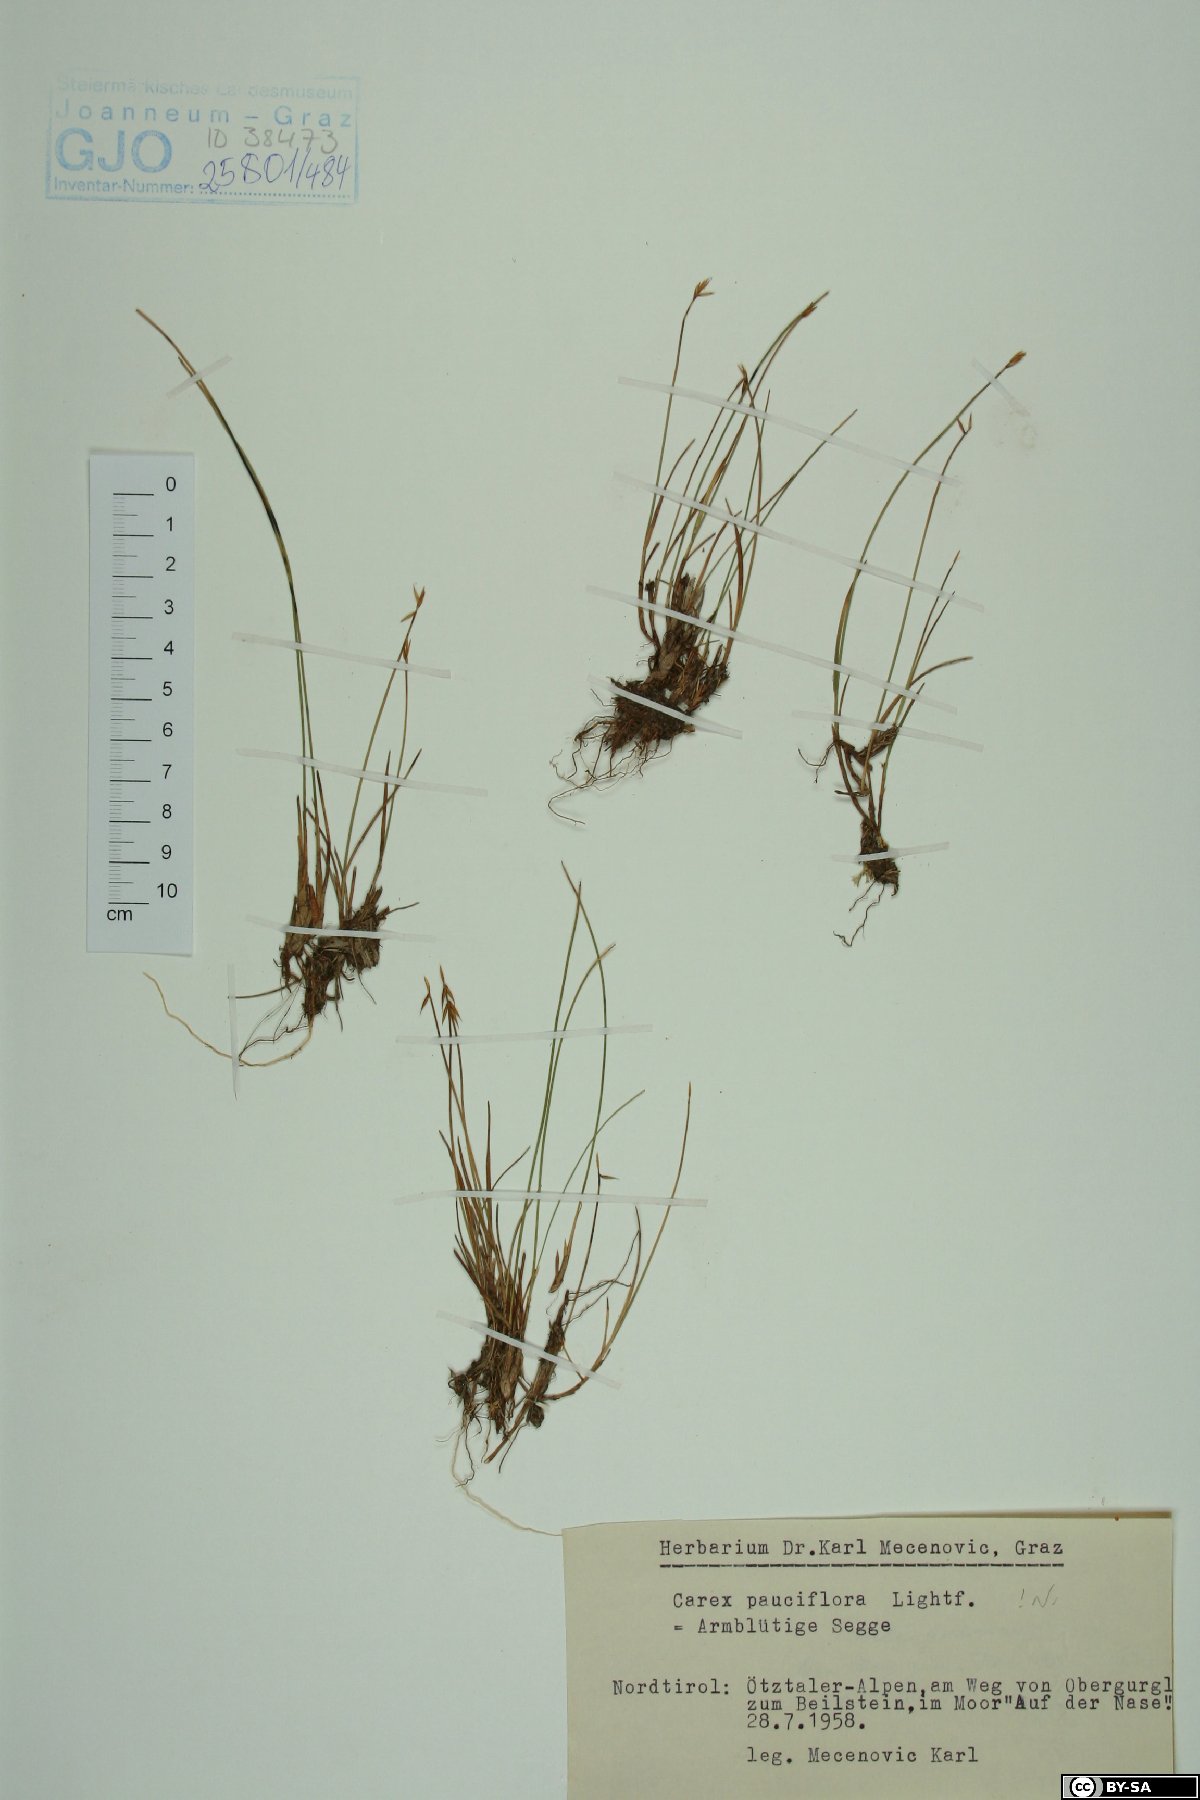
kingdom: Plantae
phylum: Tracheophyta
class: Liliopsida
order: Poales
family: Cyperaceae
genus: Carex
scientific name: Carex pauciflora
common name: Few-flowered sedge
